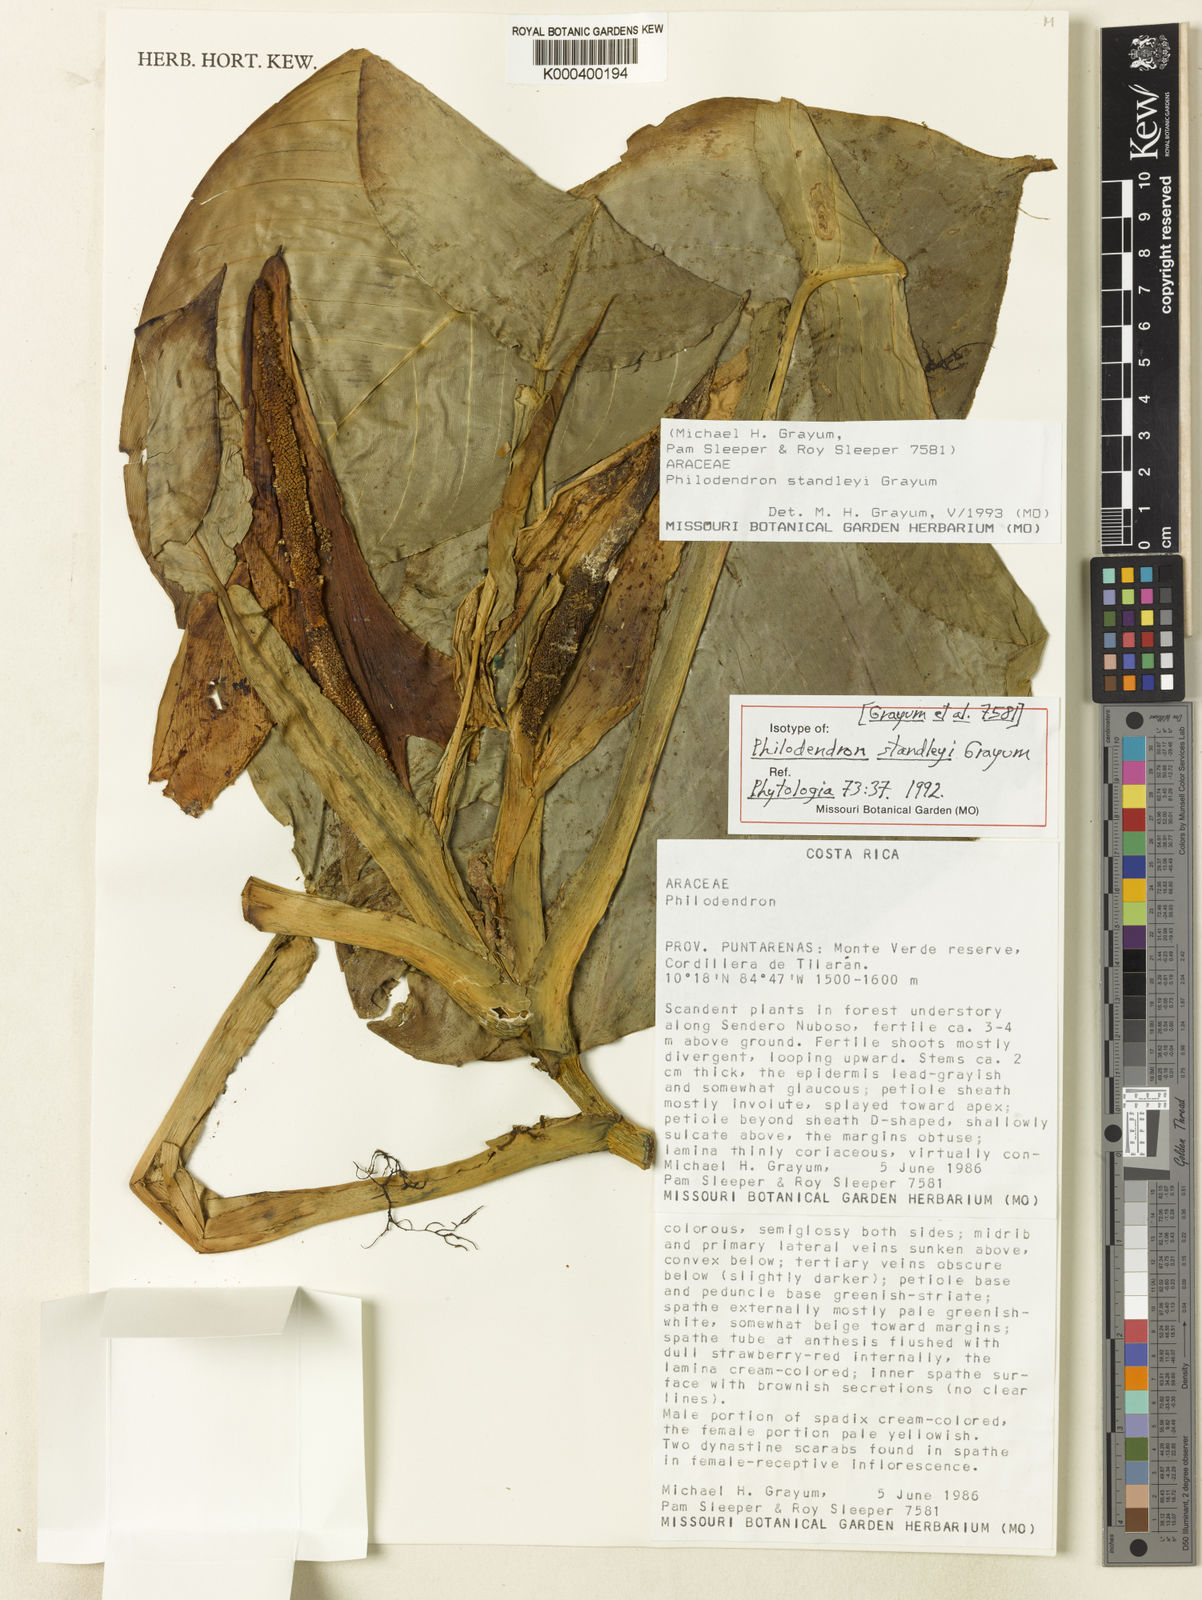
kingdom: Plantae
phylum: Tracheophyta
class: Liliopsida
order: Alismatales
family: Araceae
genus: Philodendron
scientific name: Philodendron standleyi
